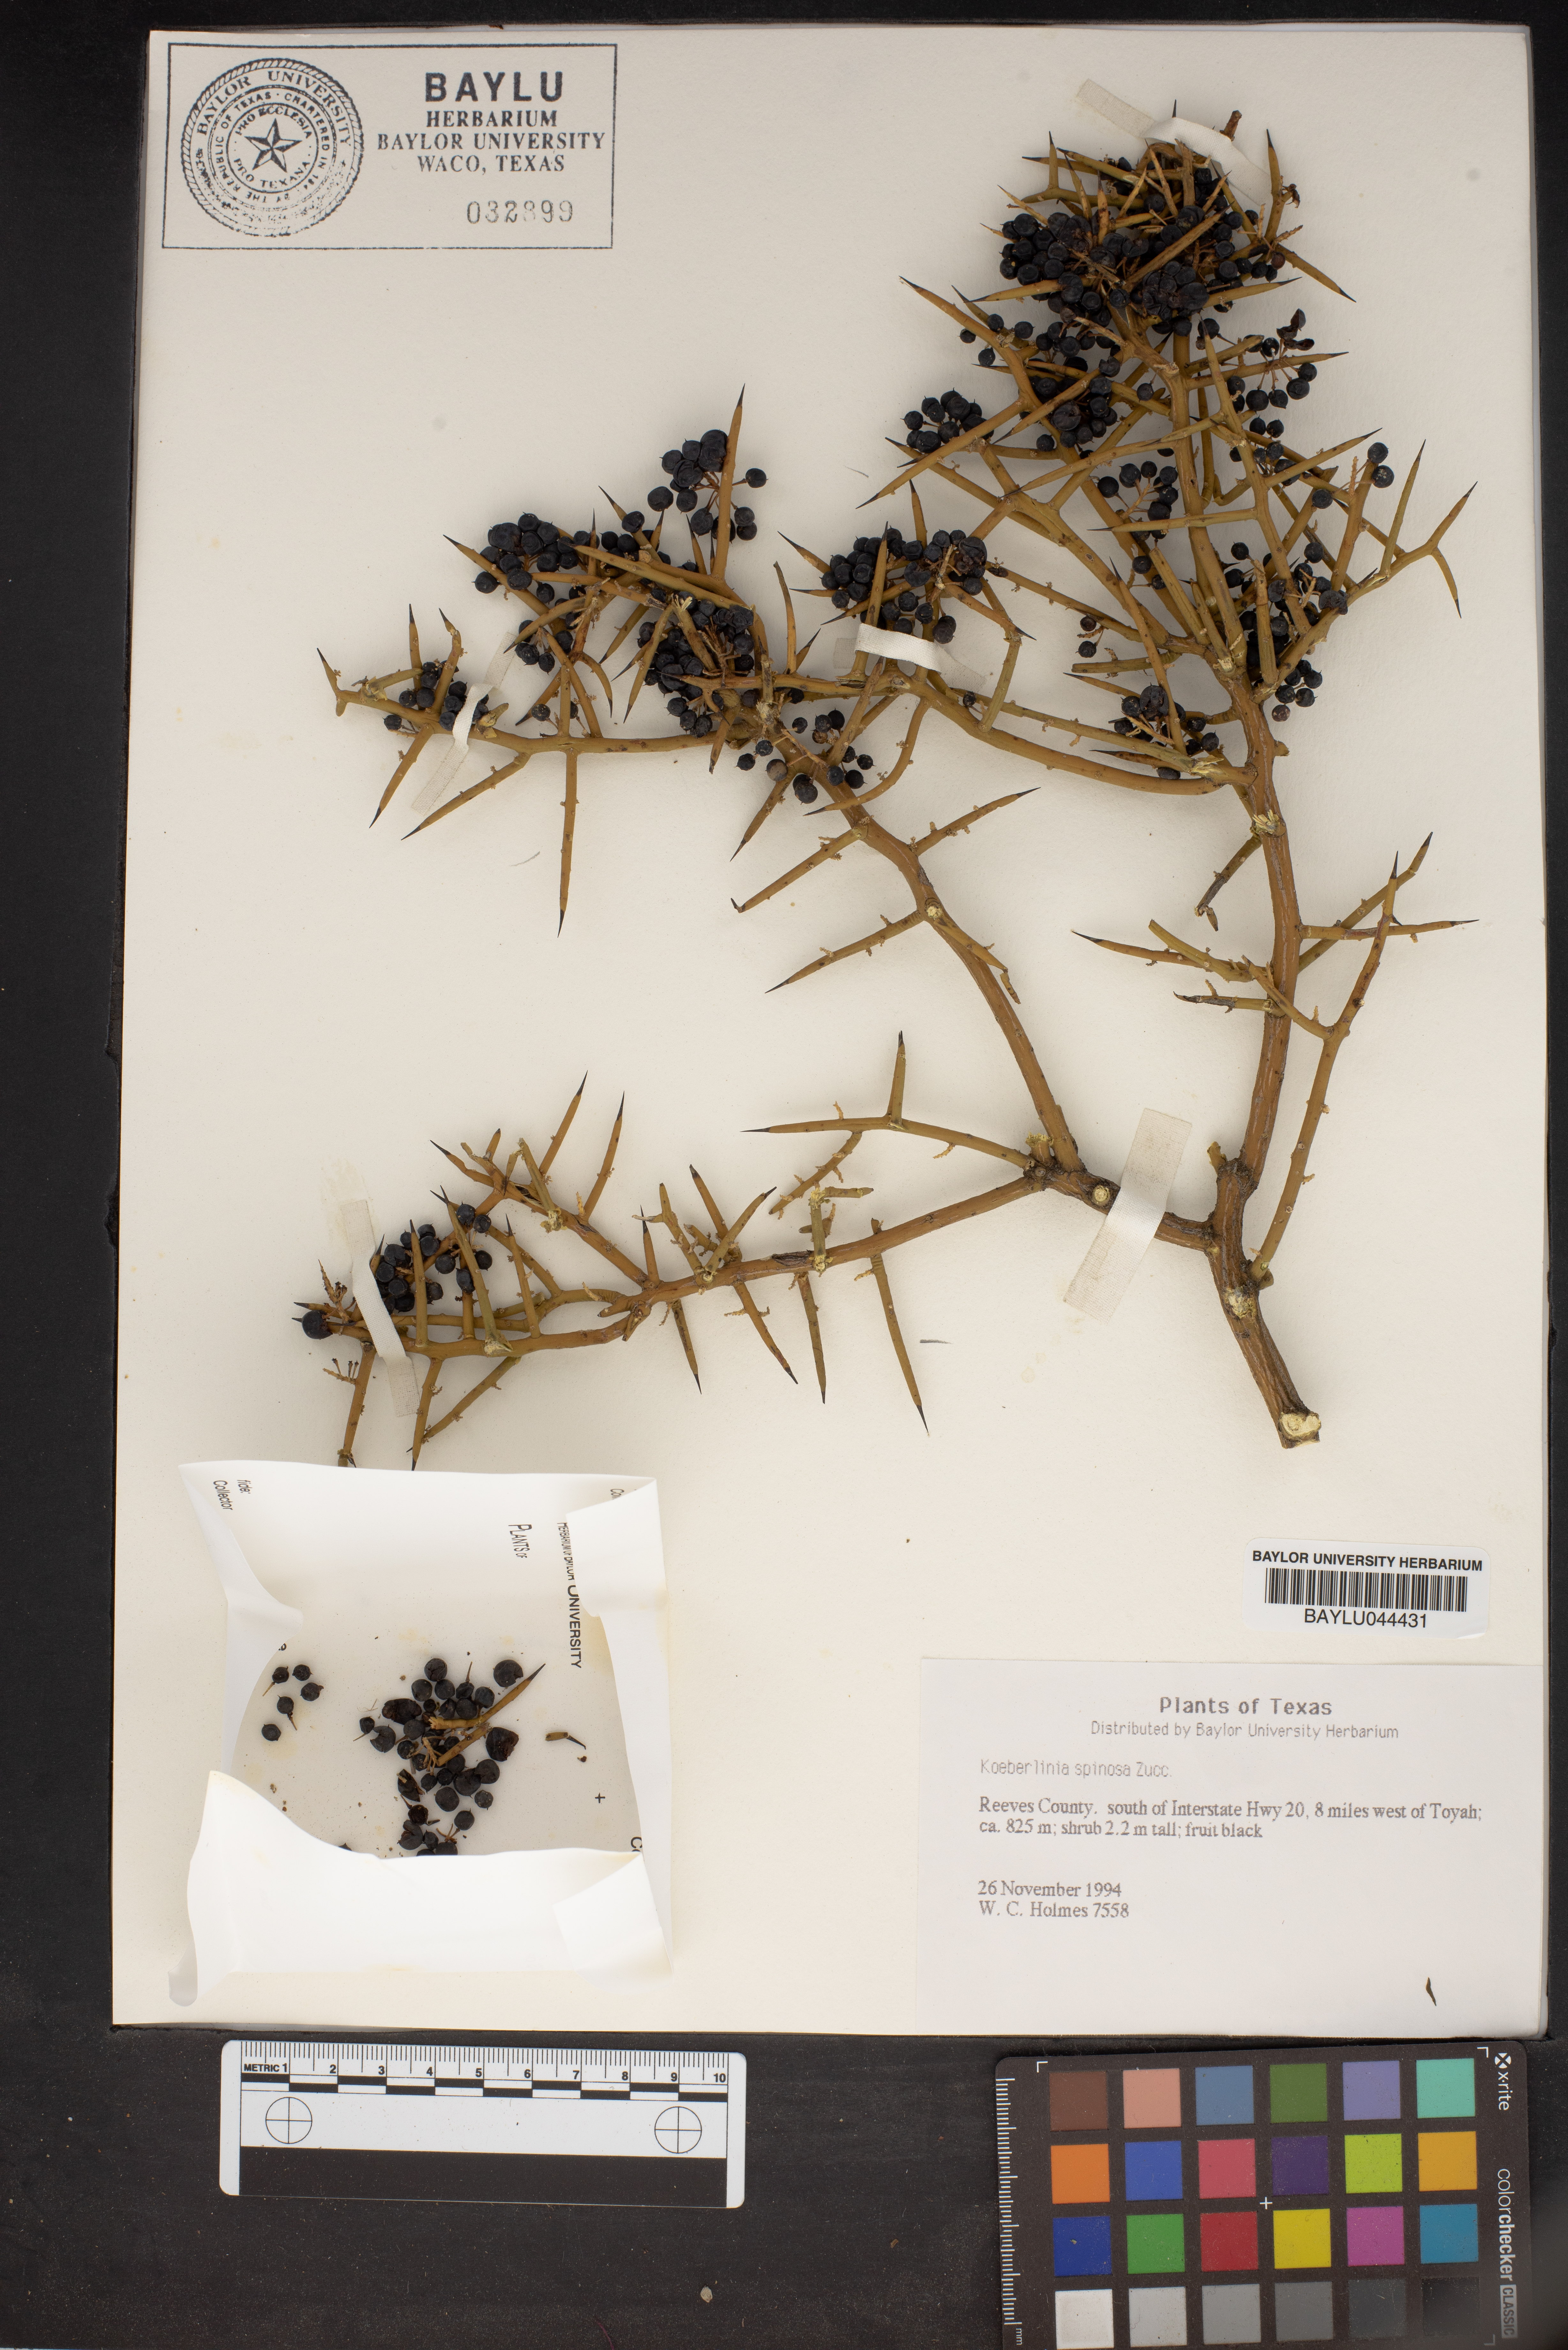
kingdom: Plantae
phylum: Tracheophyta
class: Magnoliopsida
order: Brassicales
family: Koeberliniaceae
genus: Koeberlinia
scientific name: Koeberlinia spinosa
